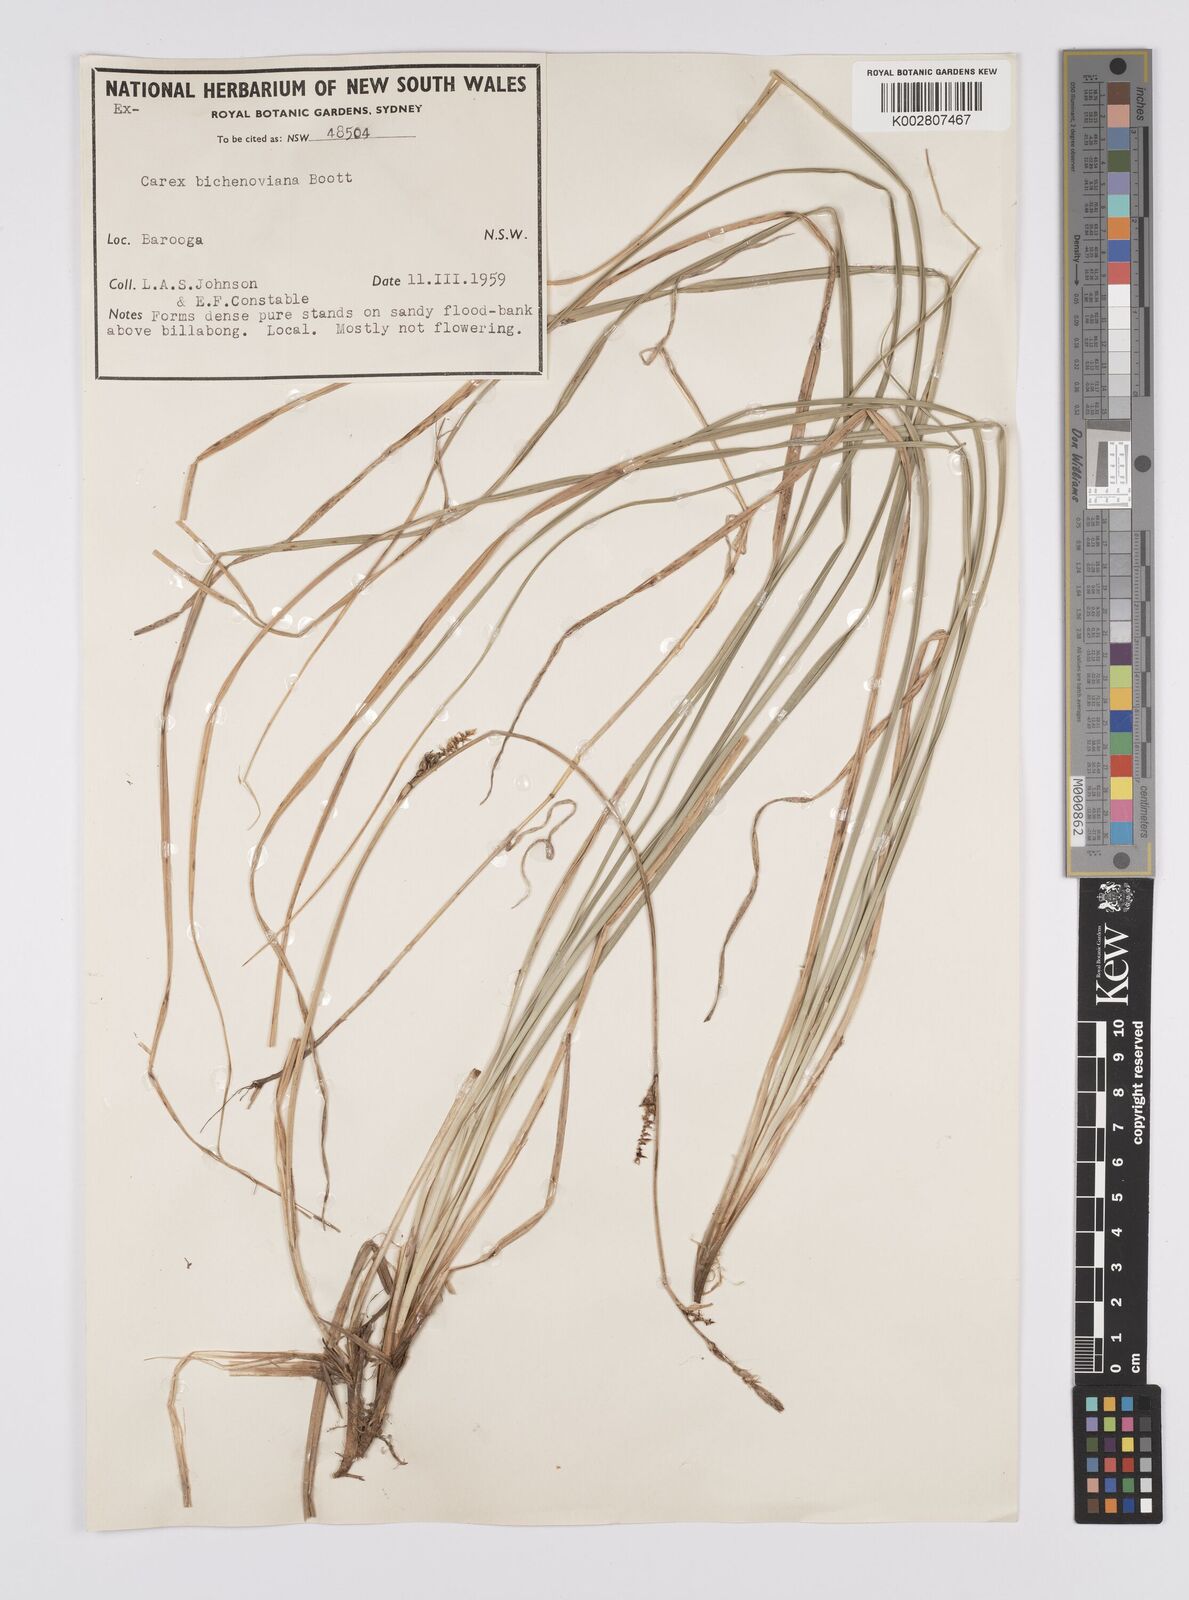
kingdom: Plantae
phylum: Tracheophyta
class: Liliopsida
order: Poales
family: Cyperaceae
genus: Carex
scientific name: Carex bichenoviana
